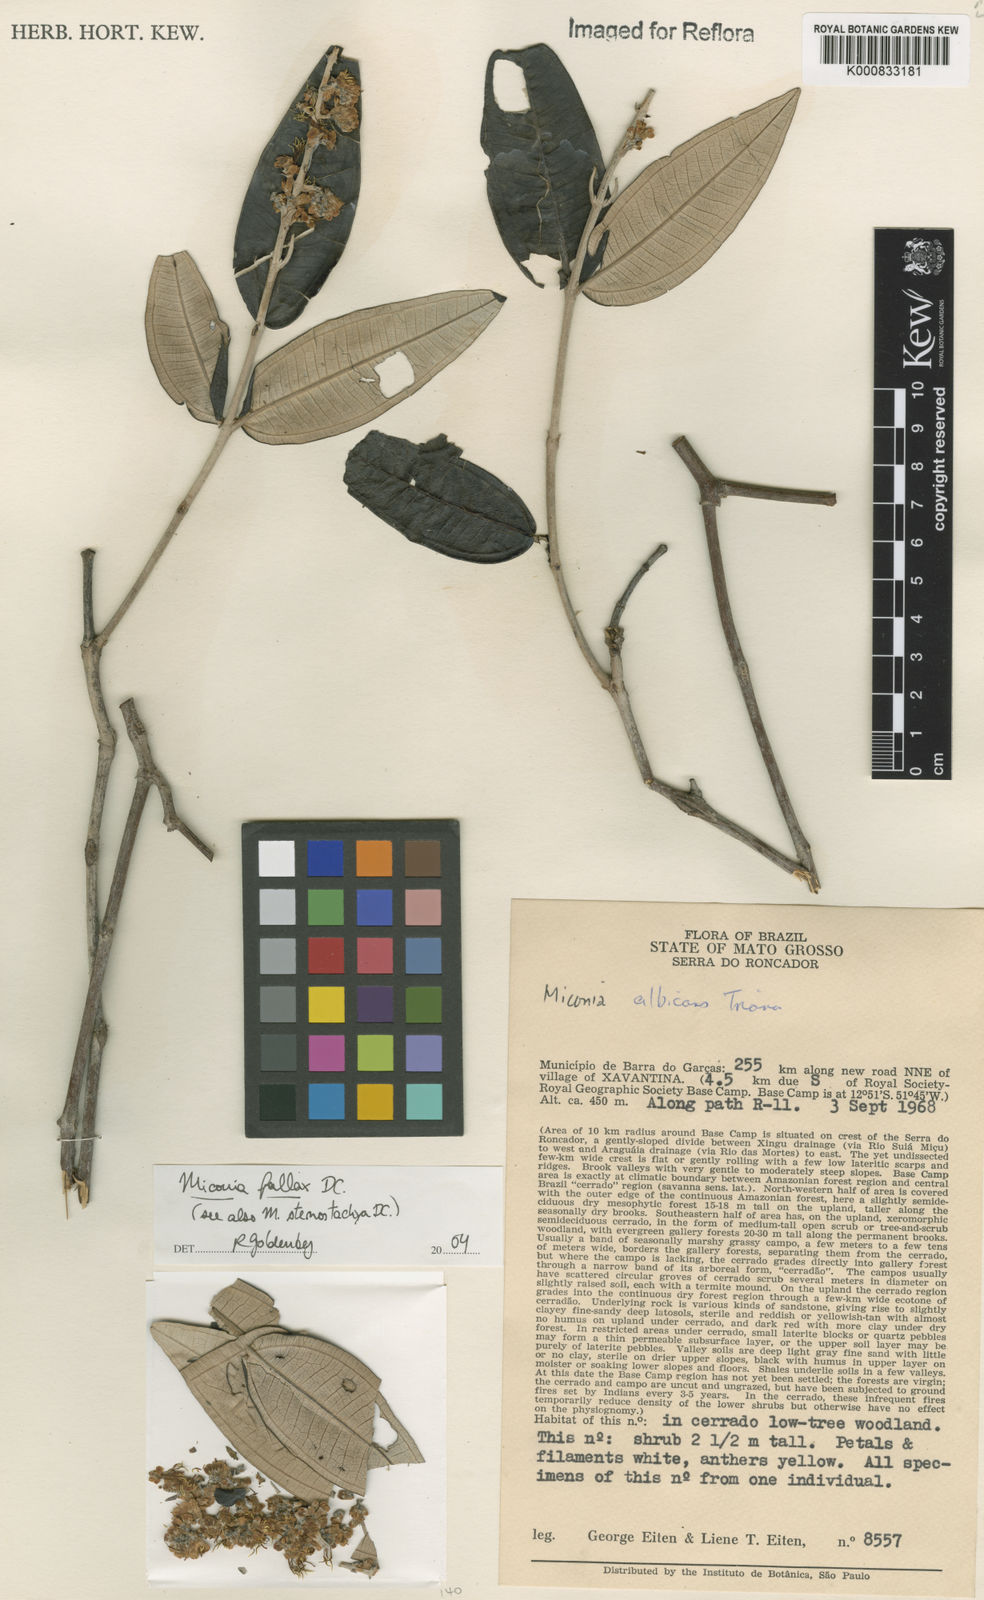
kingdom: Plantae
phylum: Tracheophyta
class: Magnoliopsida
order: Myrtales
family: Melastomataceae
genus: Miconia
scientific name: Miconia fallax
